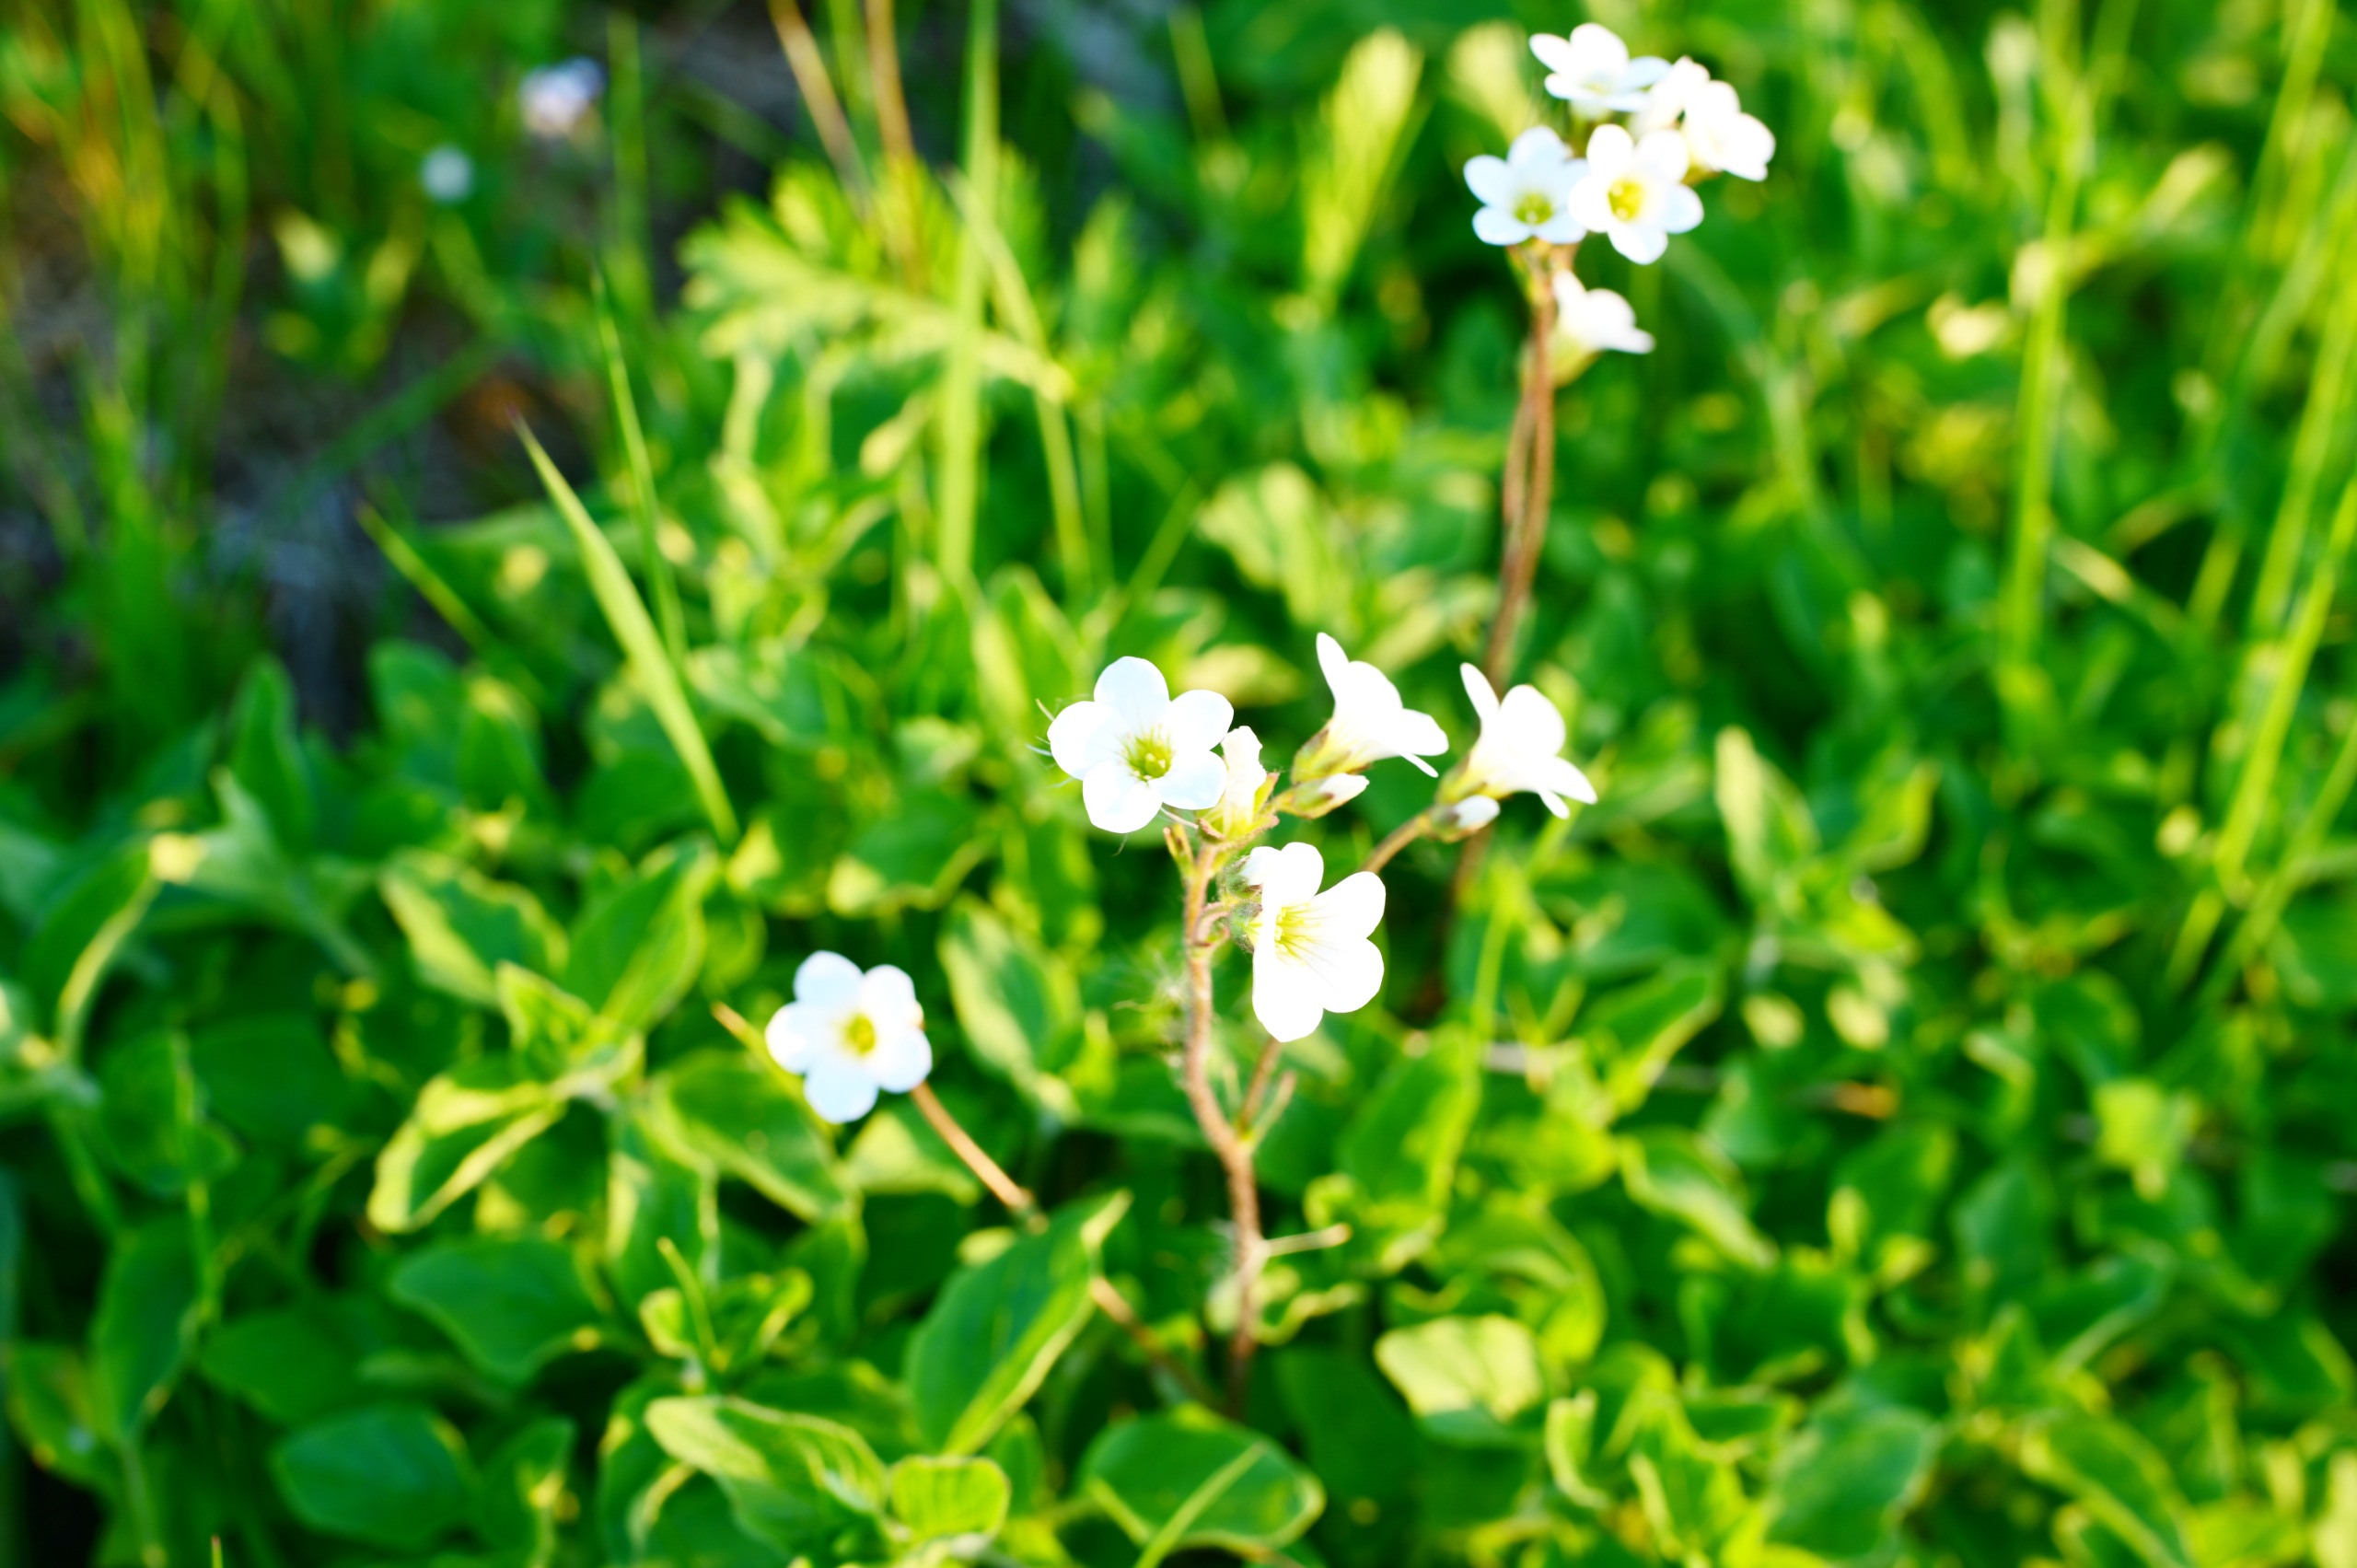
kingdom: Plantae
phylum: Tracheophyta
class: Magnoliopsida
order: Saxifragales
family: Saxifragaceae
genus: Saxifraga
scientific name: Saxifraga granulata
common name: Kornet stenbræk
